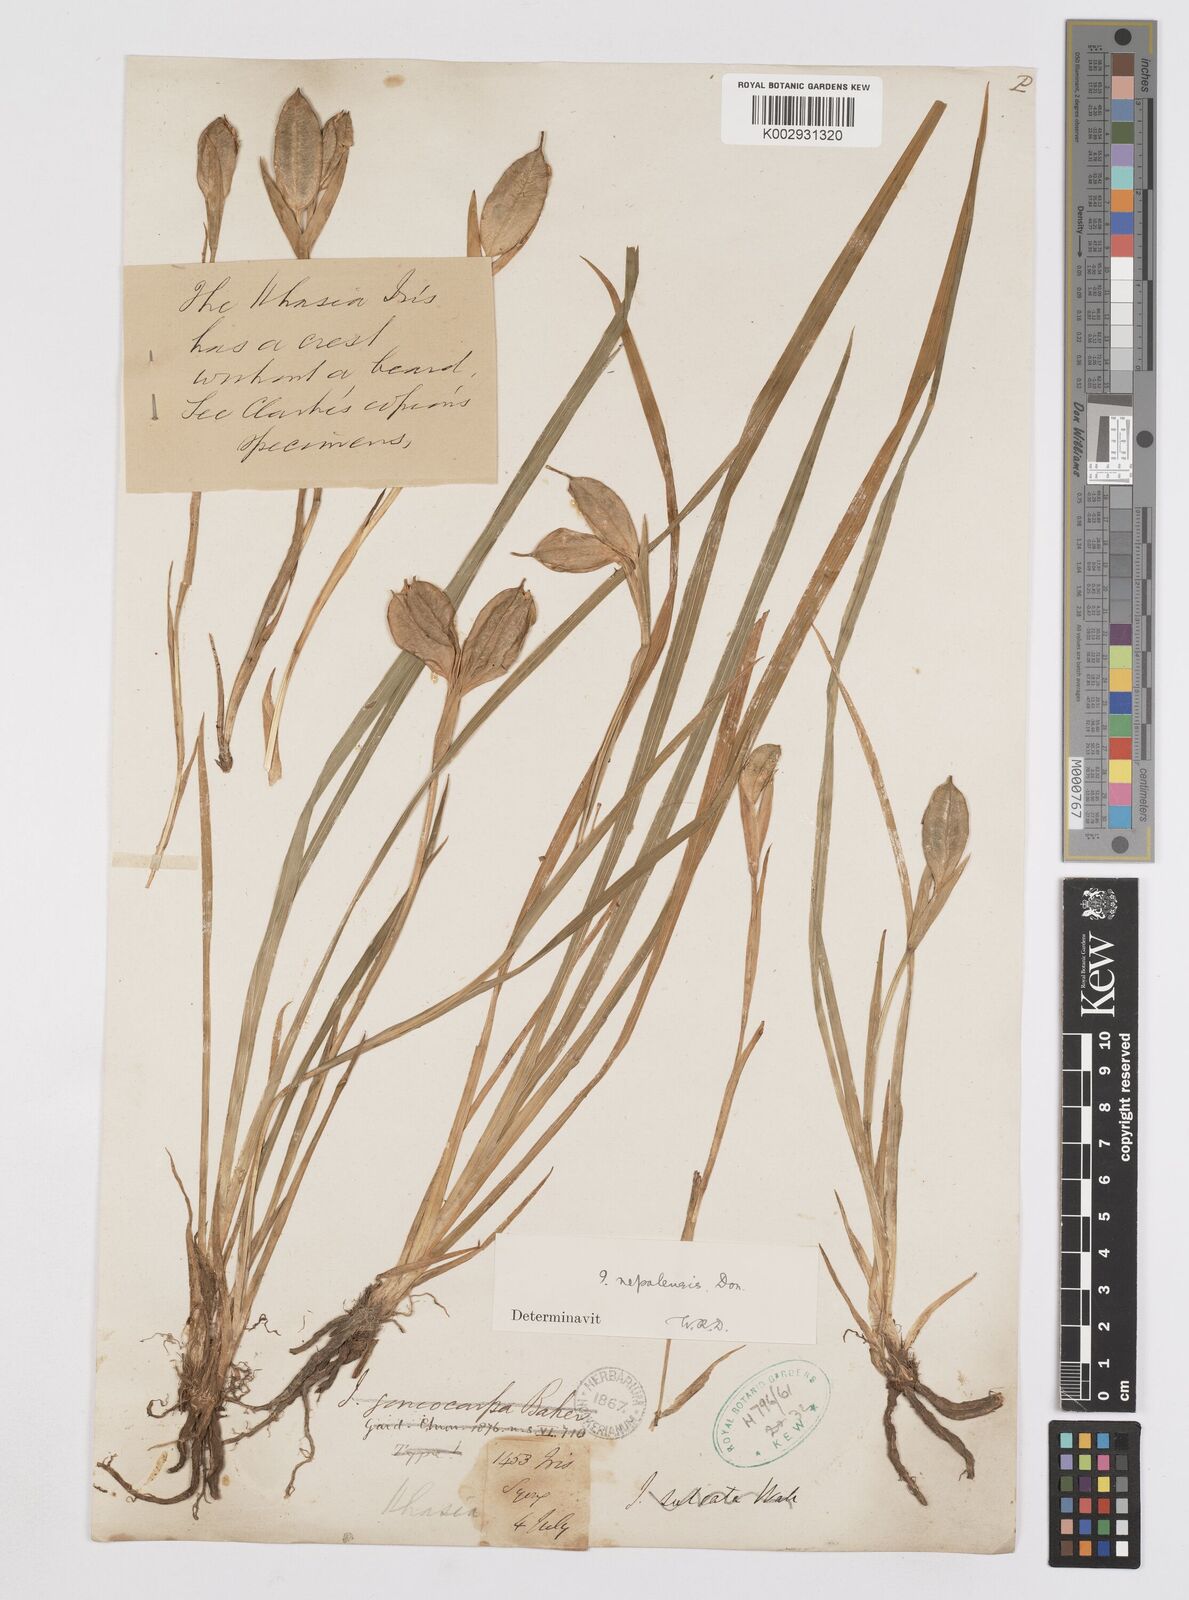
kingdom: Plantae
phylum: Tracheophyta
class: Liliopsida
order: Asparagales
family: Iridaceae
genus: Iris
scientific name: Iris decora
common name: Nepal iris
